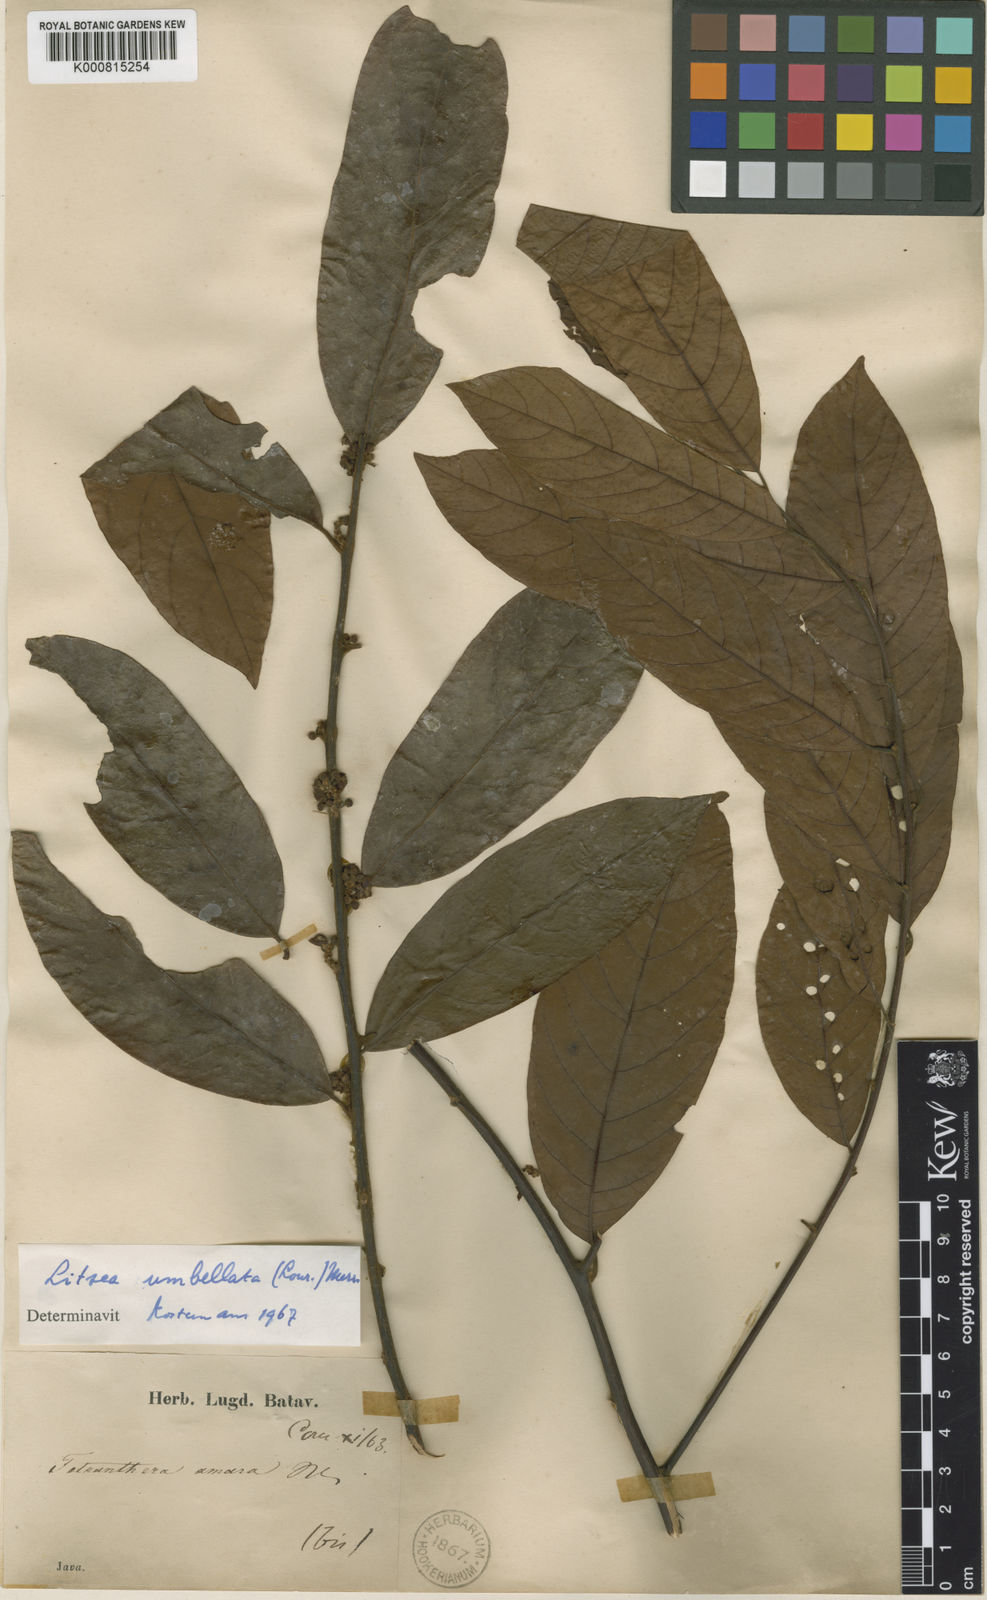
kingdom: Plantae
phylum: Tracheophyta
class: Magnoliopsida
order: Laurales
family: Lauraceae
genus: Litsea
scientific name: Litsea umbellata
